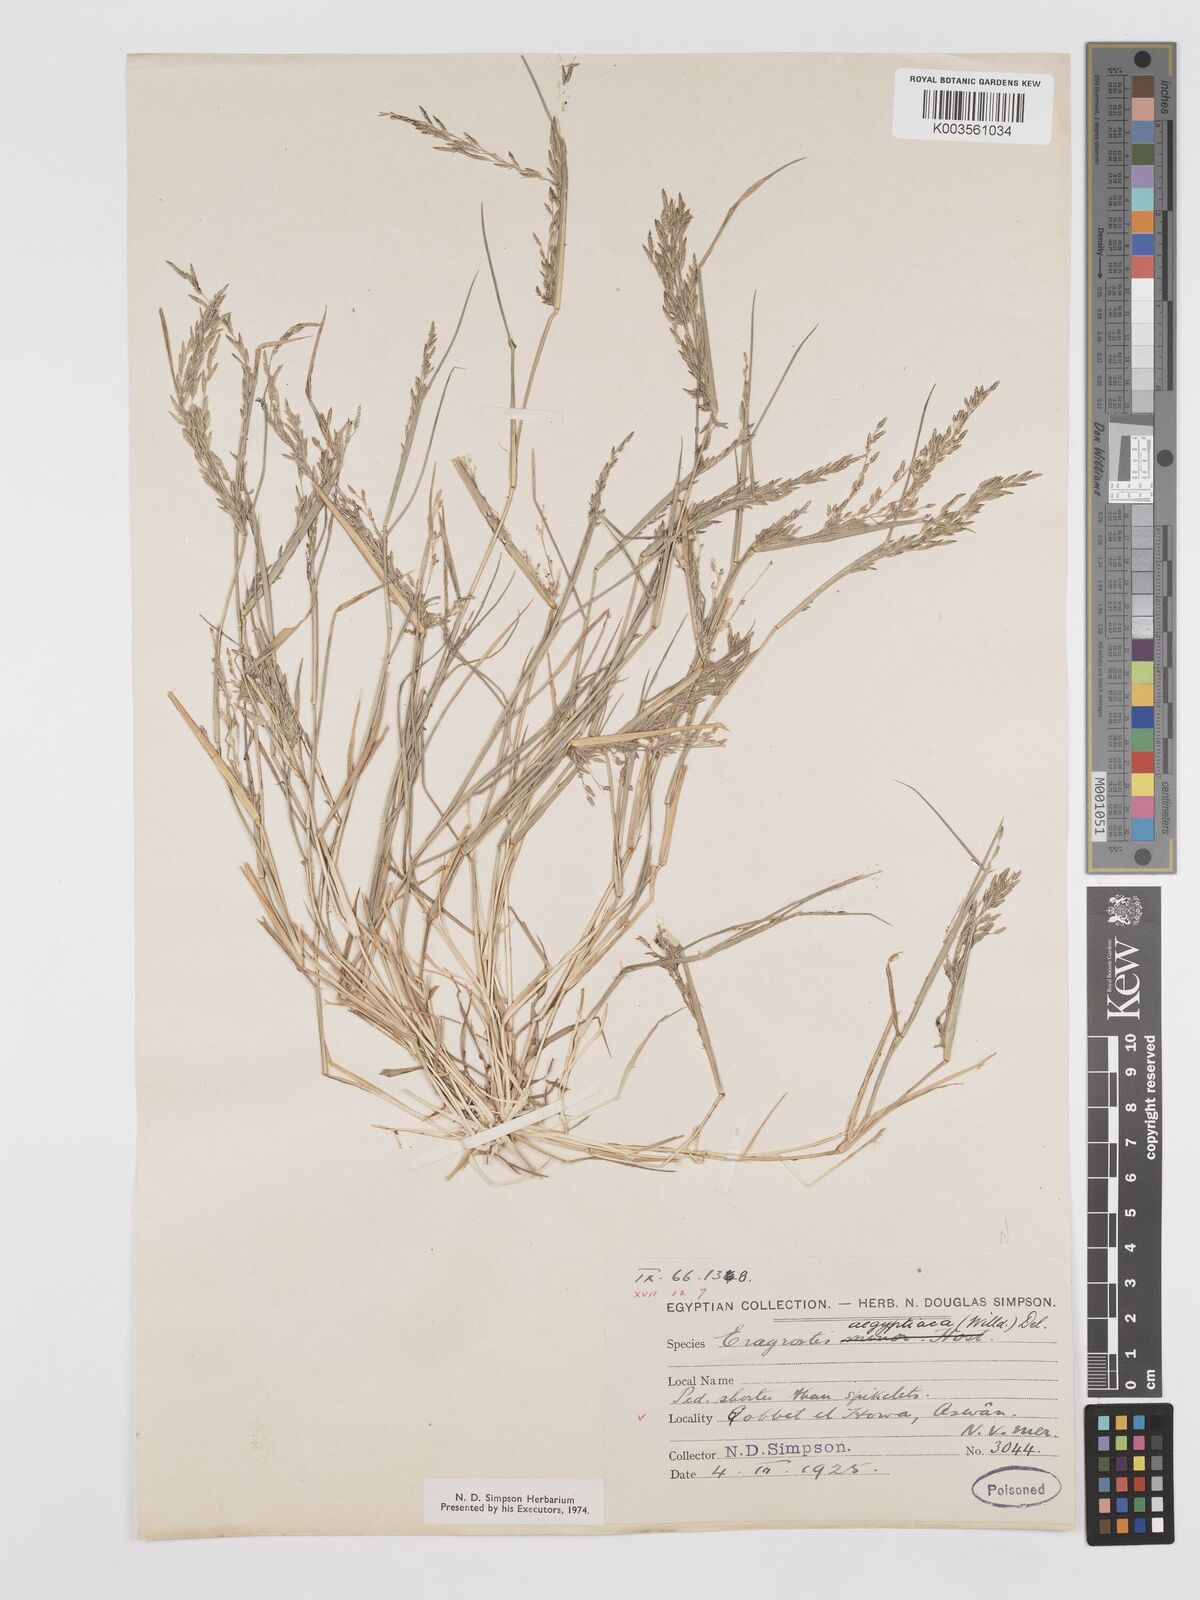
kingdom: Plantae
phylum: Tracheophyta
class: Liliopsida
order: Poales
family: Poaceae
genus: Eragrostis
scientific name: Eragrostis aegyptiaca
